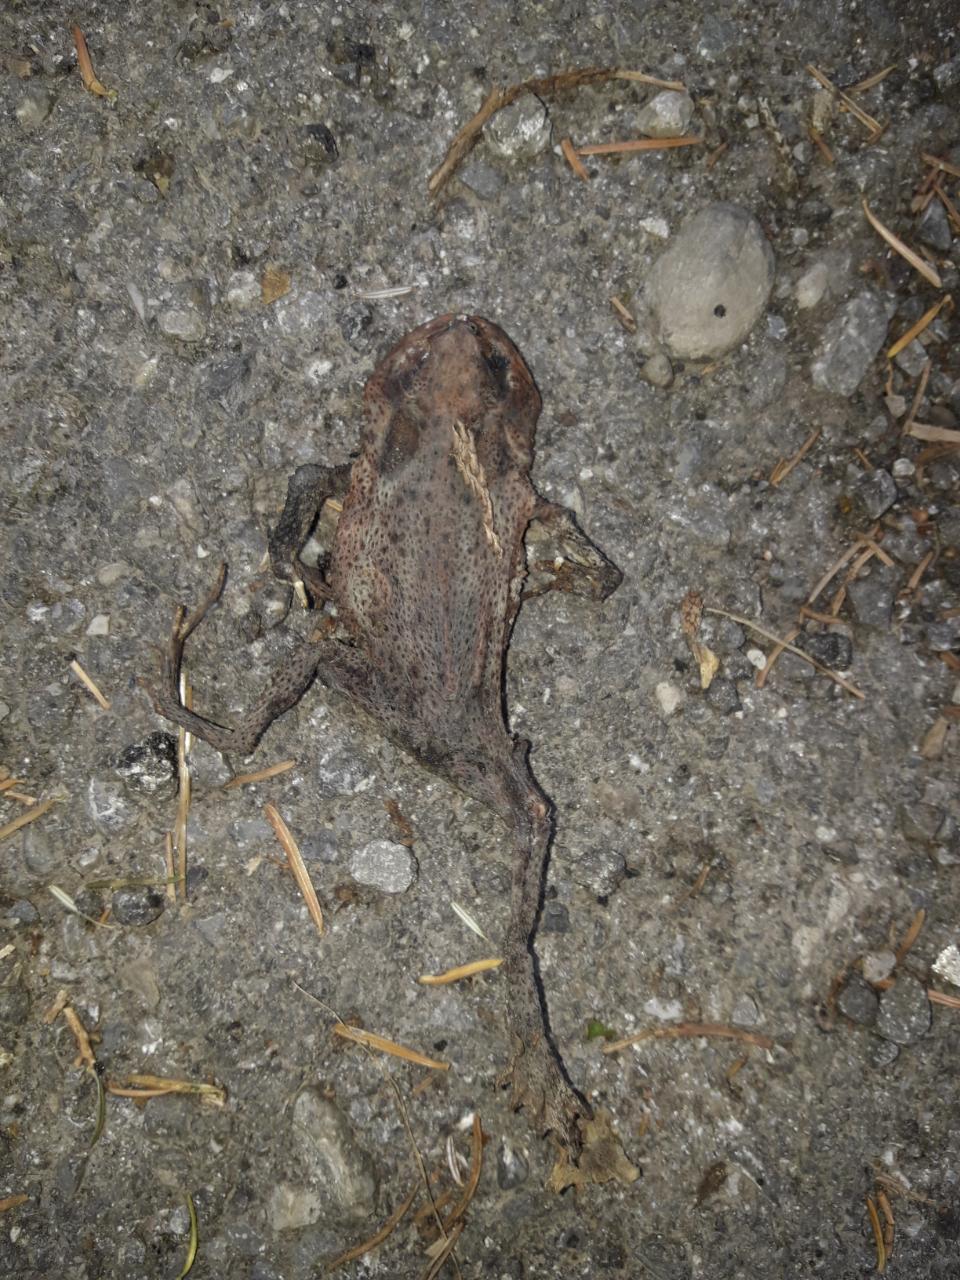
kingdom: Animalia
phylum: Chordata
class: Amphibia
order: Anura
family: Bufonidae
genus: Bufo
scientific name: Bufo bufo
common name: Common toad
